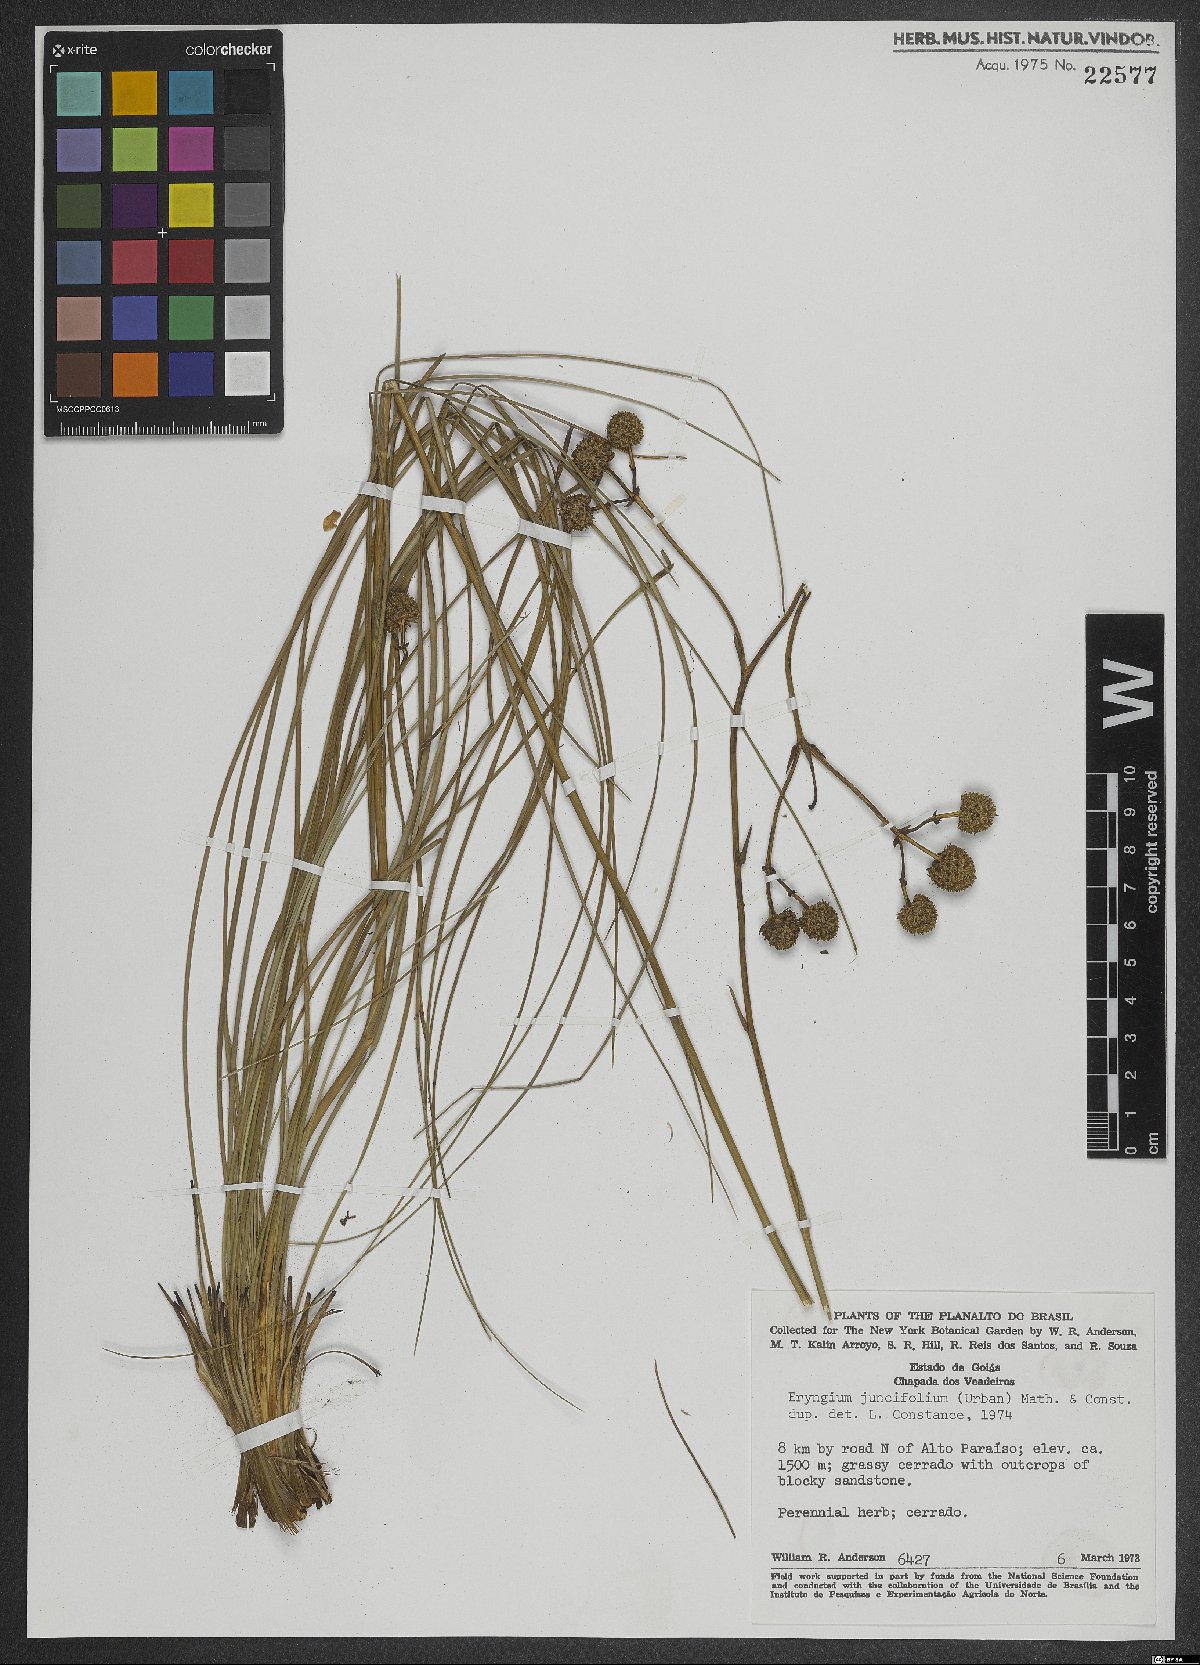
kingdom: Plantae
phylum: Tracheophyta
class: Magnoliopsida
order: Apiales
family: Apiaceae
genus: Eryngium
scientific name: Eryngium juncifolium
